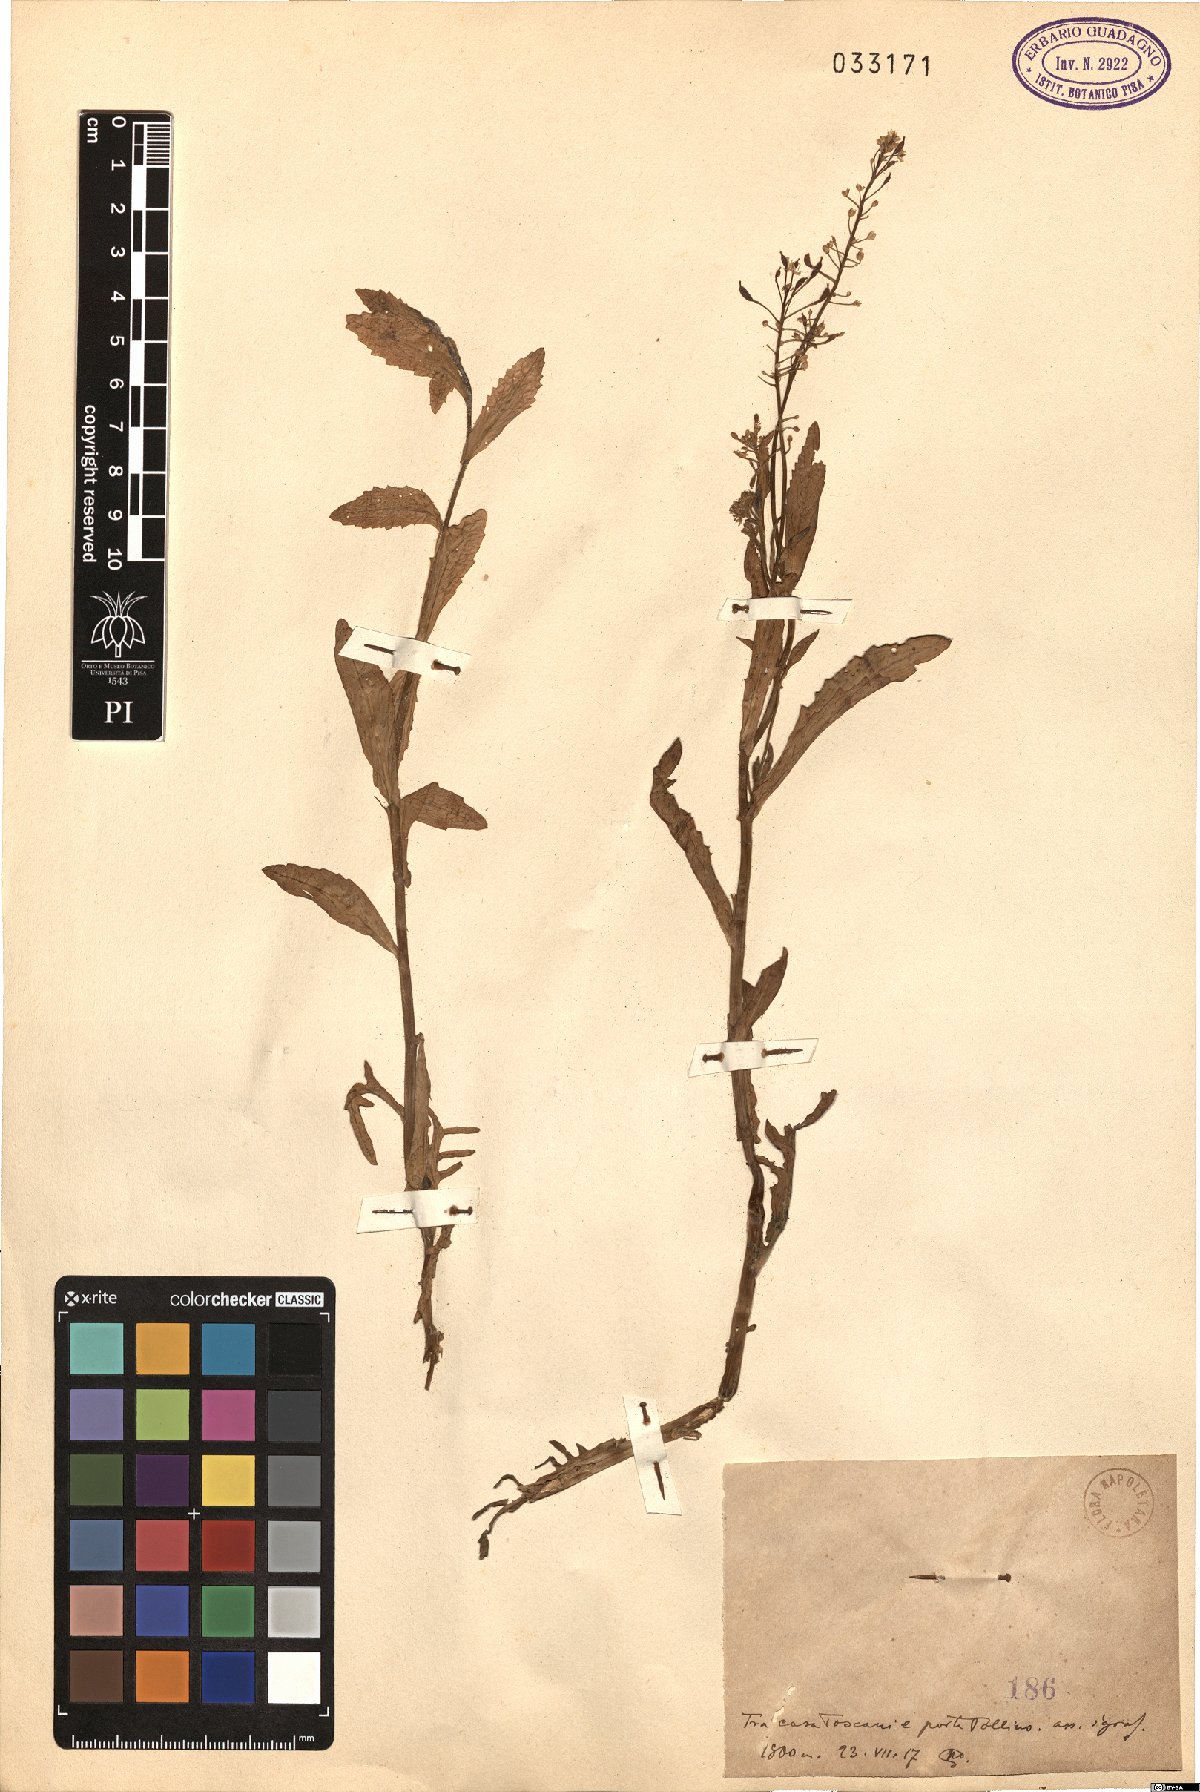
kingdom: Plantae
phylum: Tracheophyta
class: Magnoliopsida
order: Brassicales
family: Brassicaceae
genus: Lepidium
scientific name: Lepidium
